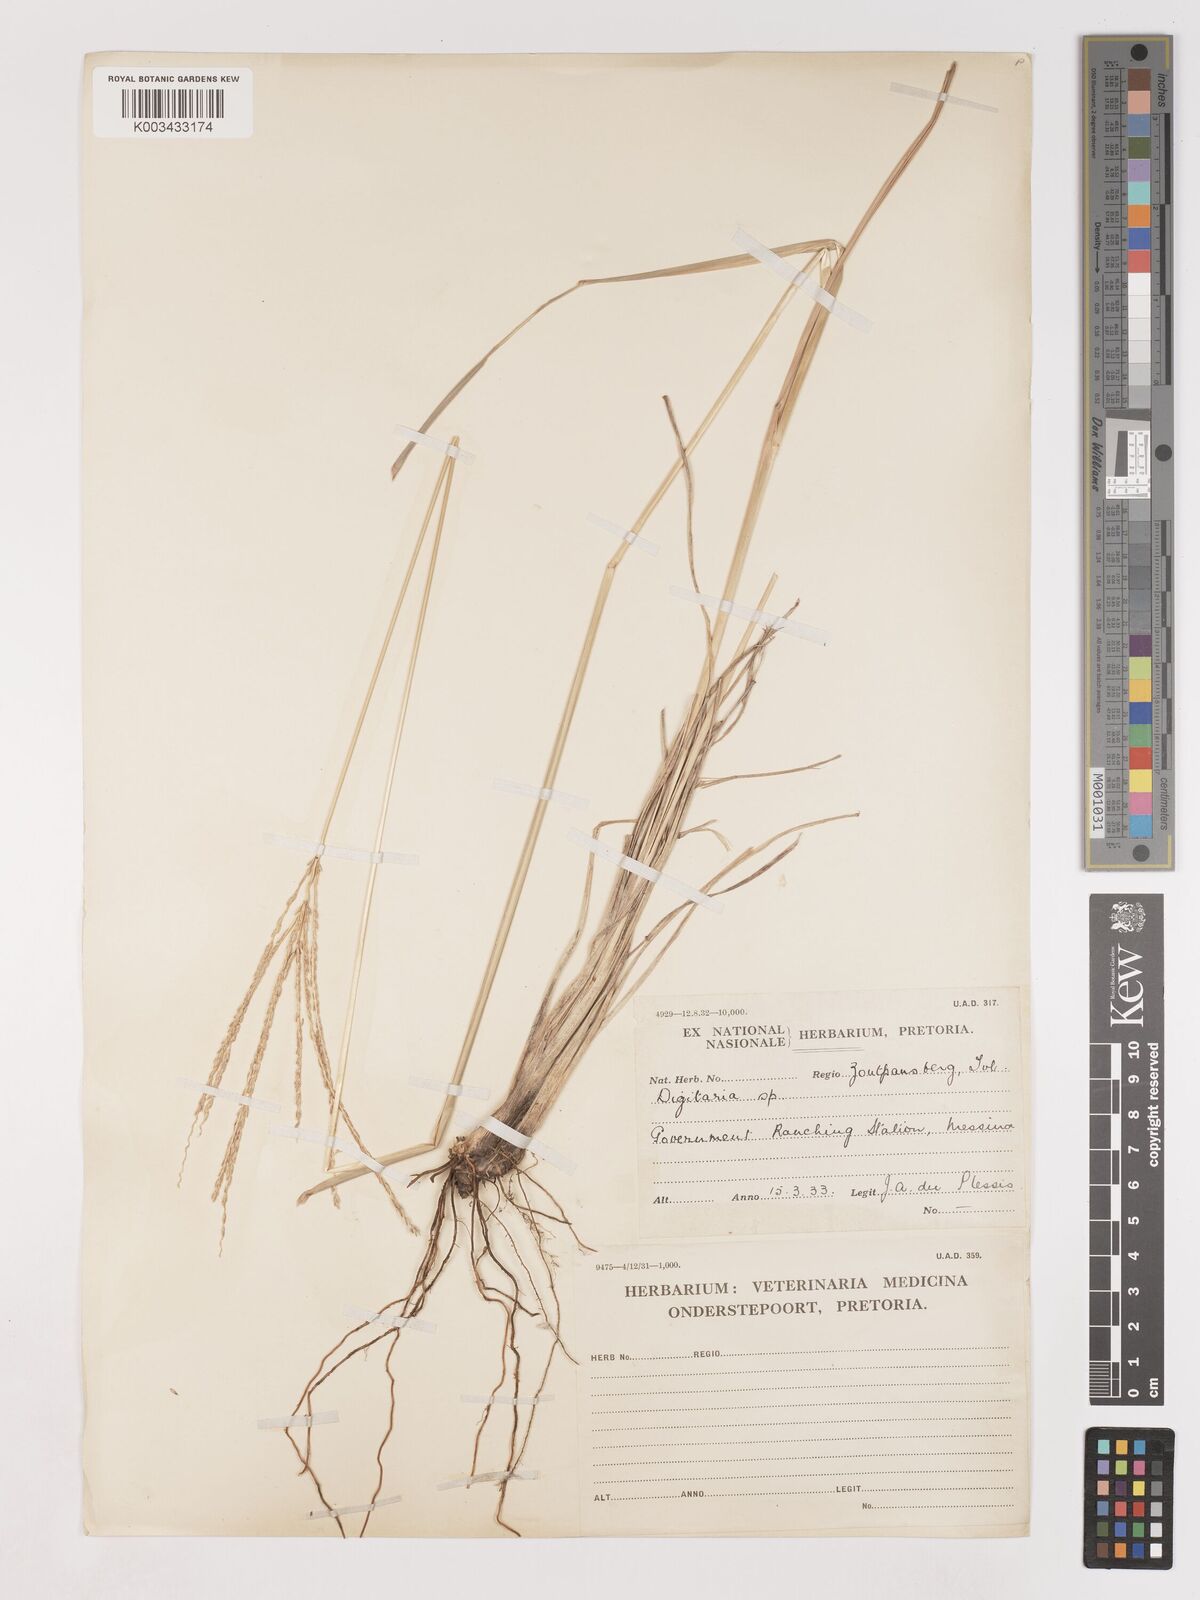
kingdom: Plantae
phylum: Tracheophyta
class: Liliopsida
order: Poales
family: Poaceae
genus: Digitaria
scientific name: Digitaria milanjiana
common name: Madagascar crabgrass
